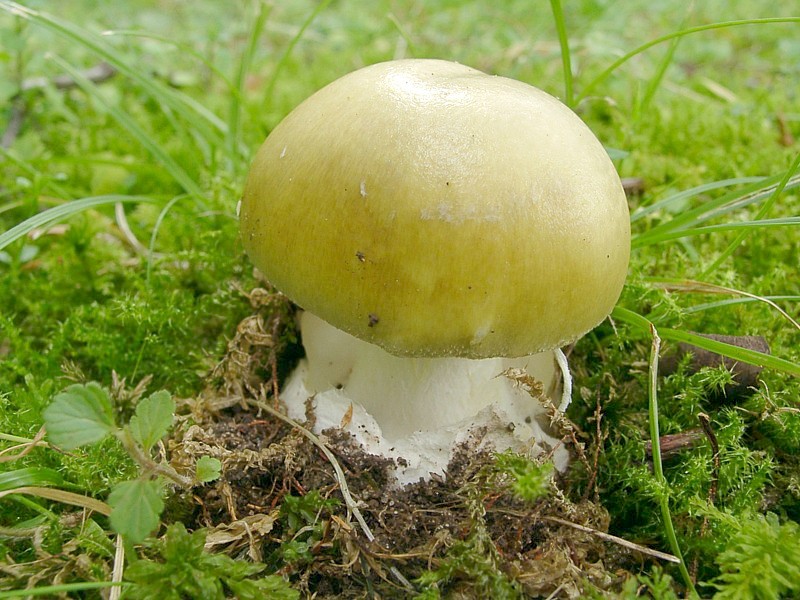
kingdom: Fungi
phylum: Basidiomycota
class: Agaricomycetes
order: Agaricales
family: Amanitaceae
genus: Amanita
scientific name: Amanita phalloides
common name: Death cap
